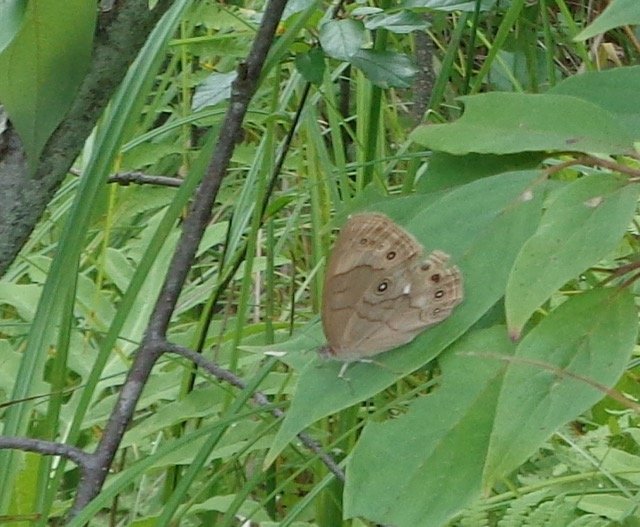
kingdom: Animalia
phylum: Arthropoda
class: Insecta
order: Lepidoptera
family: Nymphalidae
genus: Lethe
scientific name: Lethe eurydice
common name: Appalachian Eyed Brown
